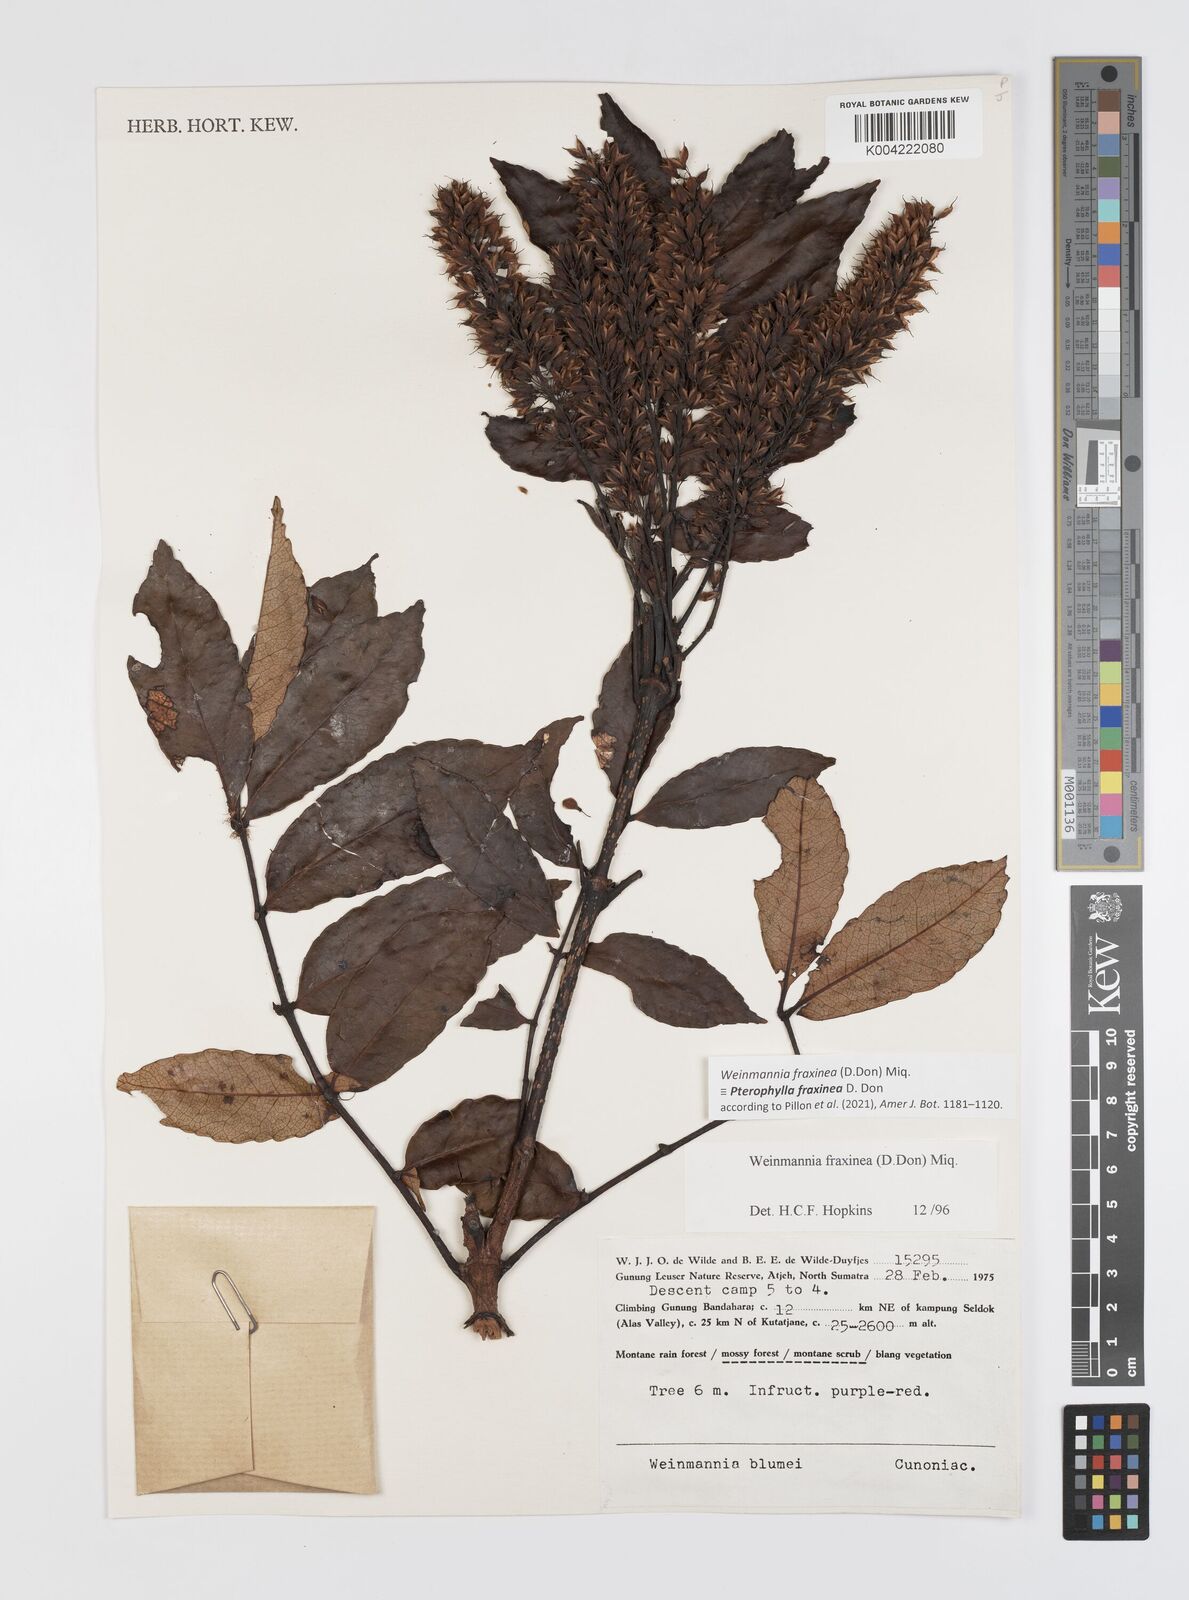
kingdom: Plantae
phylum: Tracheophyta
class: Magnoliopsida
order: Oxalidales
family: Cunoniaceae
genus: Pterophylla
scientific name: Pterophylla fraxinea
